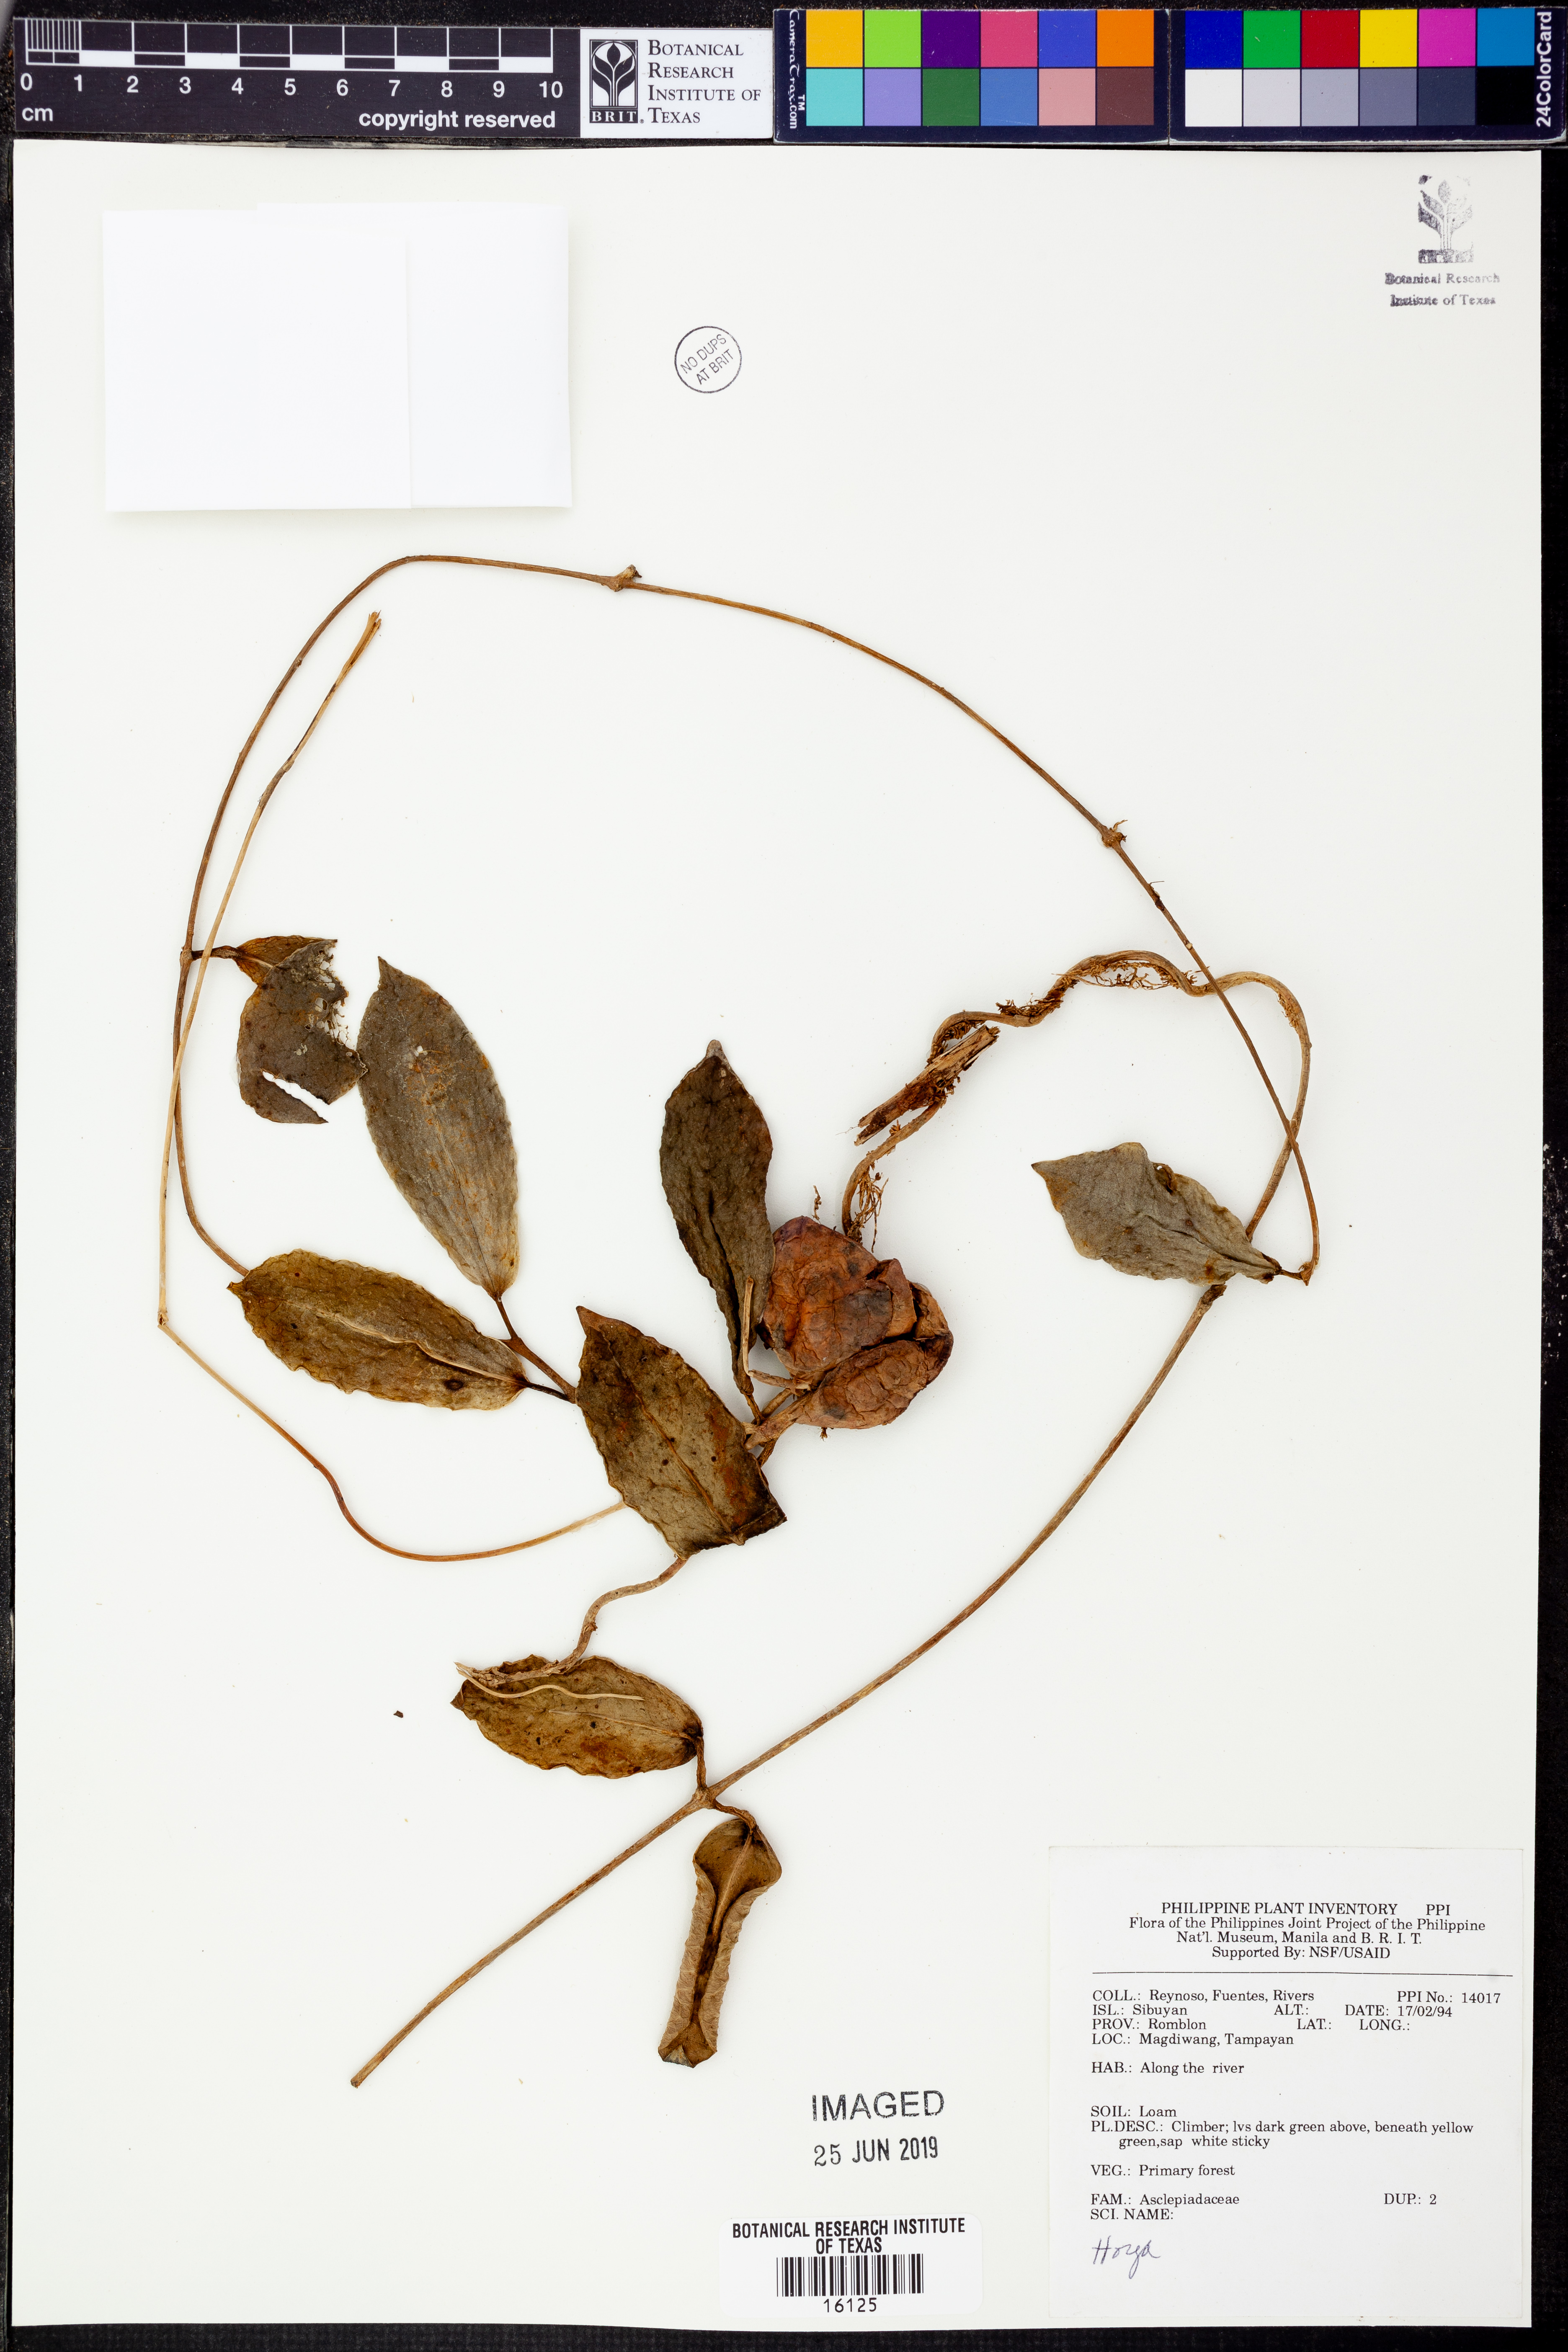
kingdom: Plantae
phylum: Tracheophyta
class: Magnoliopsida
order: Gentianales
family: Apocynaceae
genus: Hoya
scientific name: Hoya
